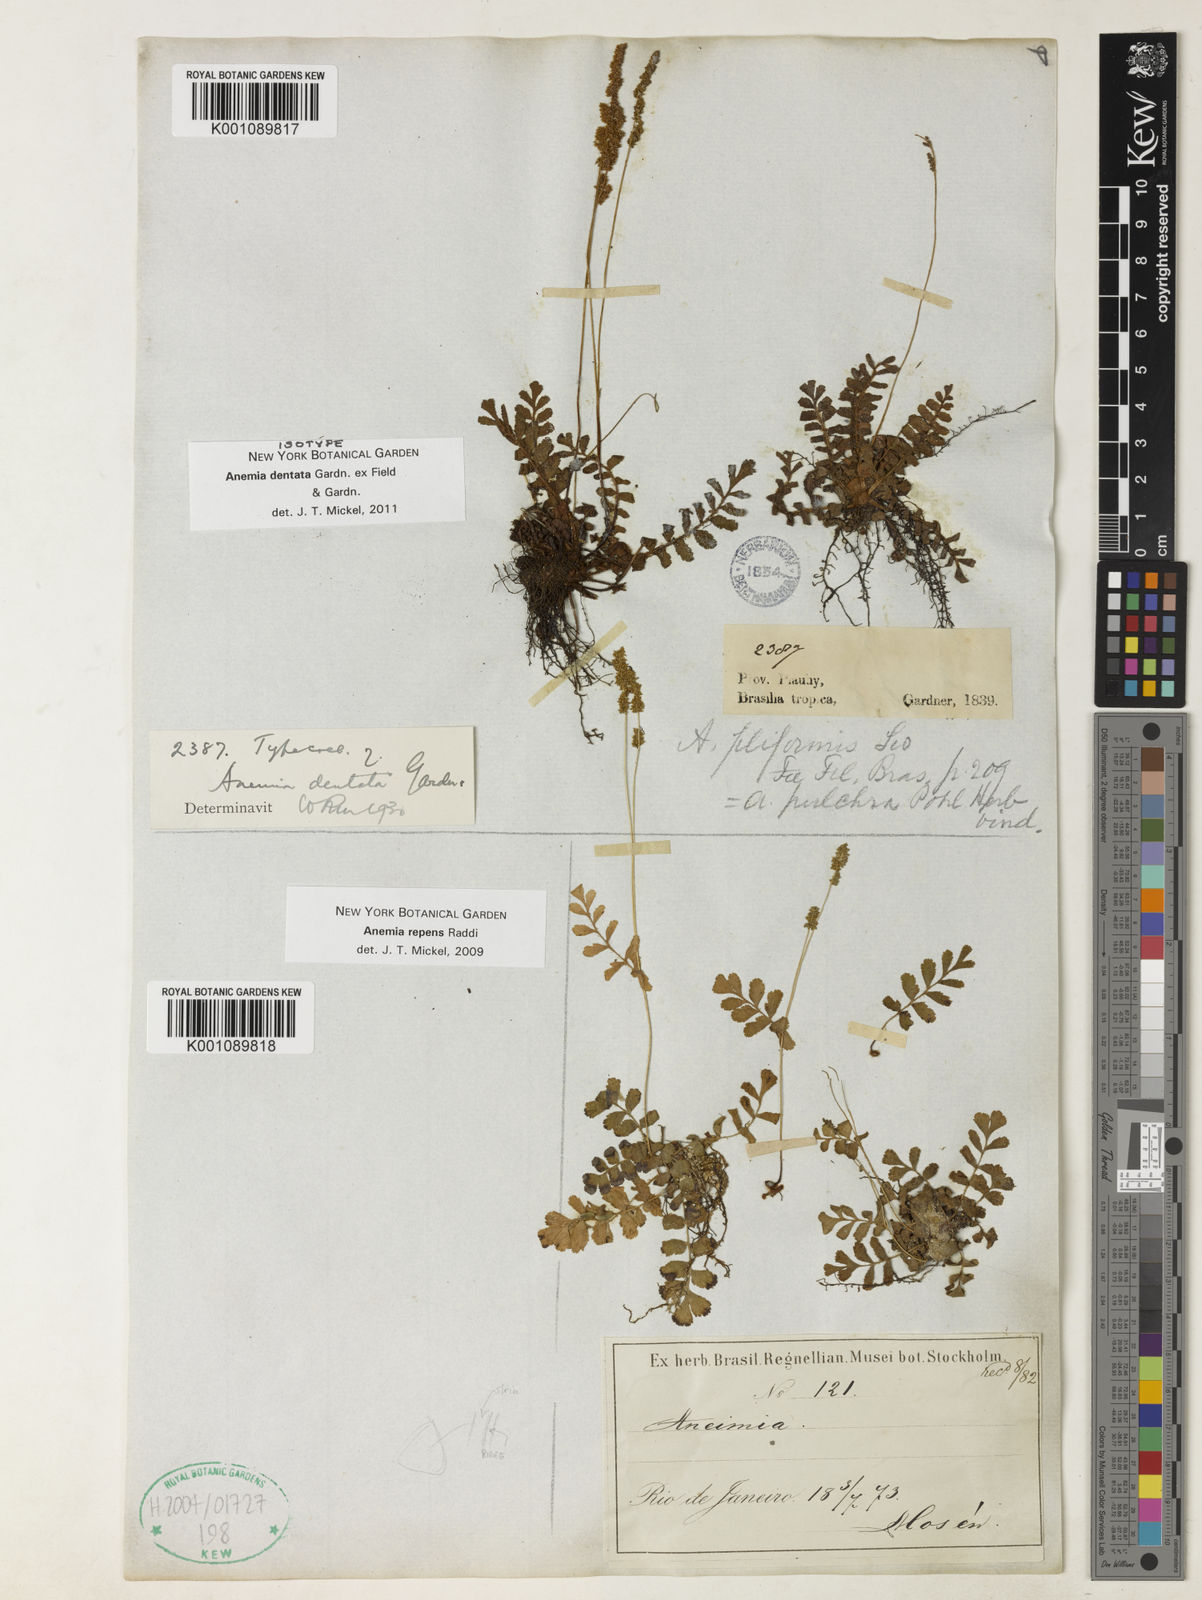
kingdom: Plantae
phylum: Tracheophyta
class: Polypodiopsida
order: Schizaeales
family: Anemiaceae
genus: Anemia
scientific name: Anemia dentata
